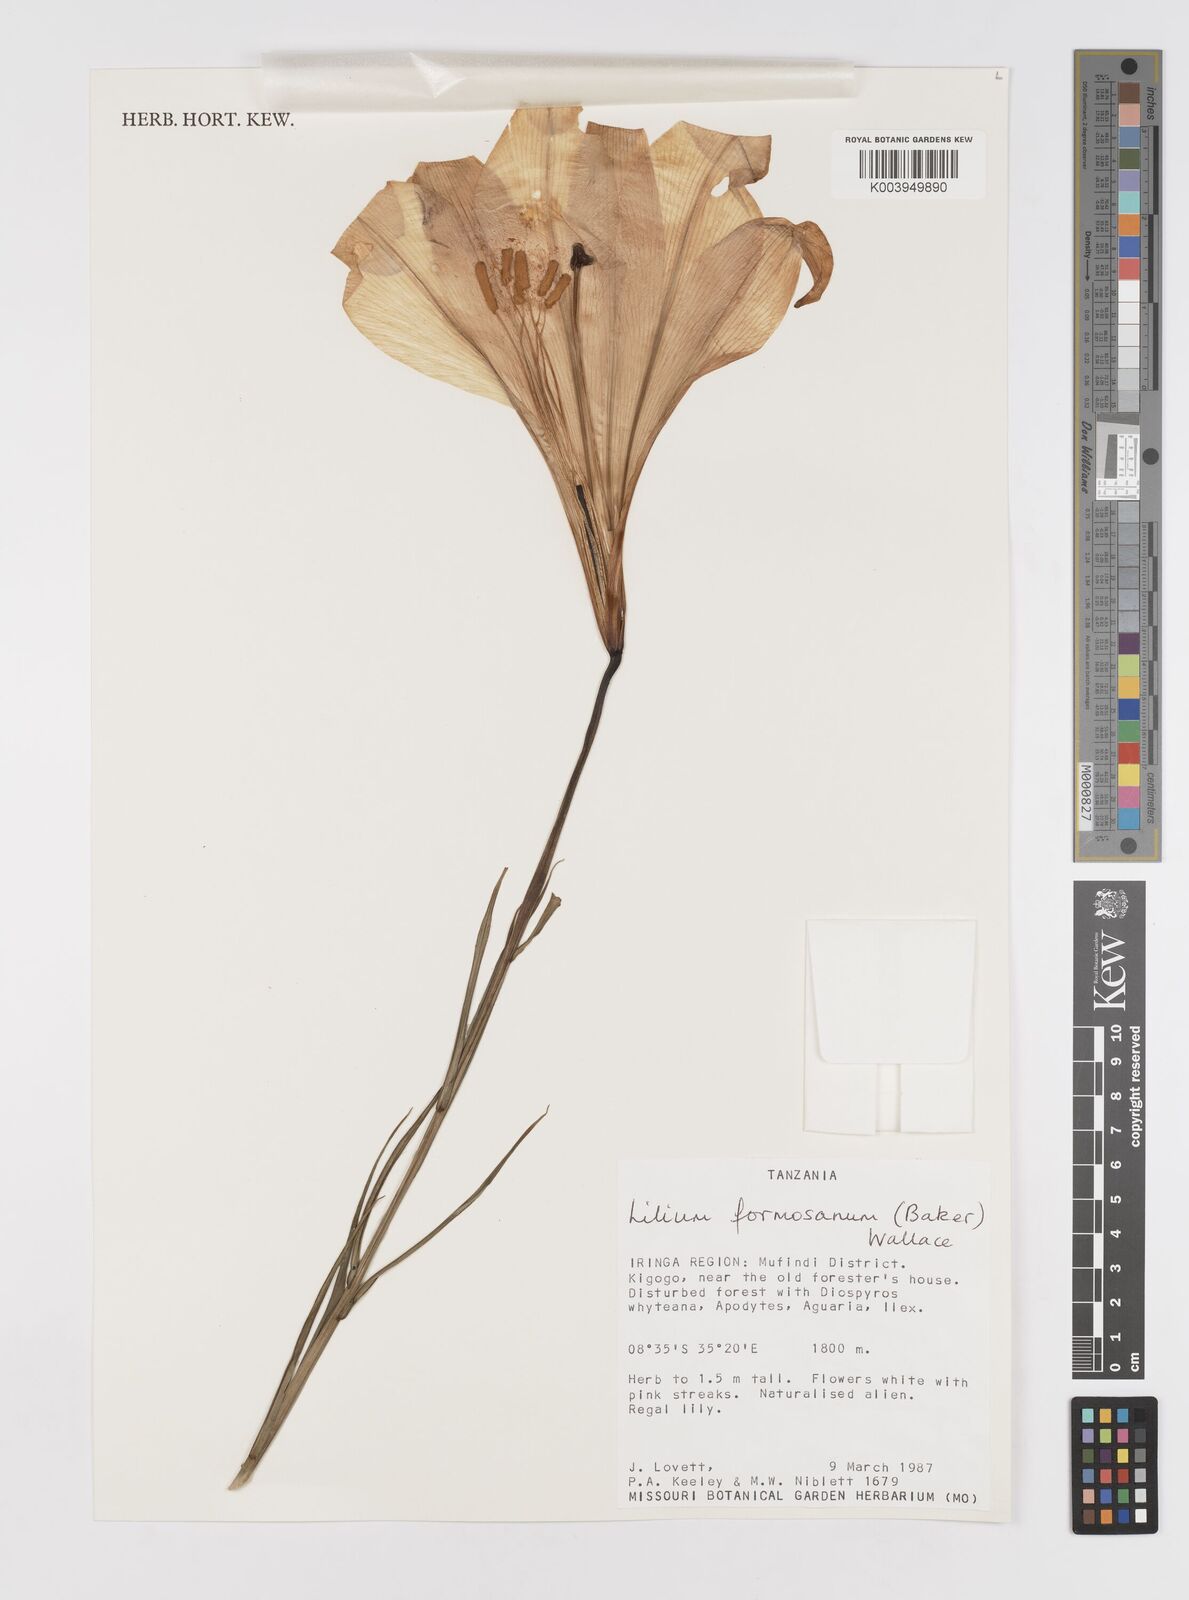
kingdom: Plantae
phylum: Tracheophyta
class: Liliopsida
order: Liliales
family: Liliaceae
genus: Lilium
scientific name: Lilium formosanum
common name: Formosa lily
